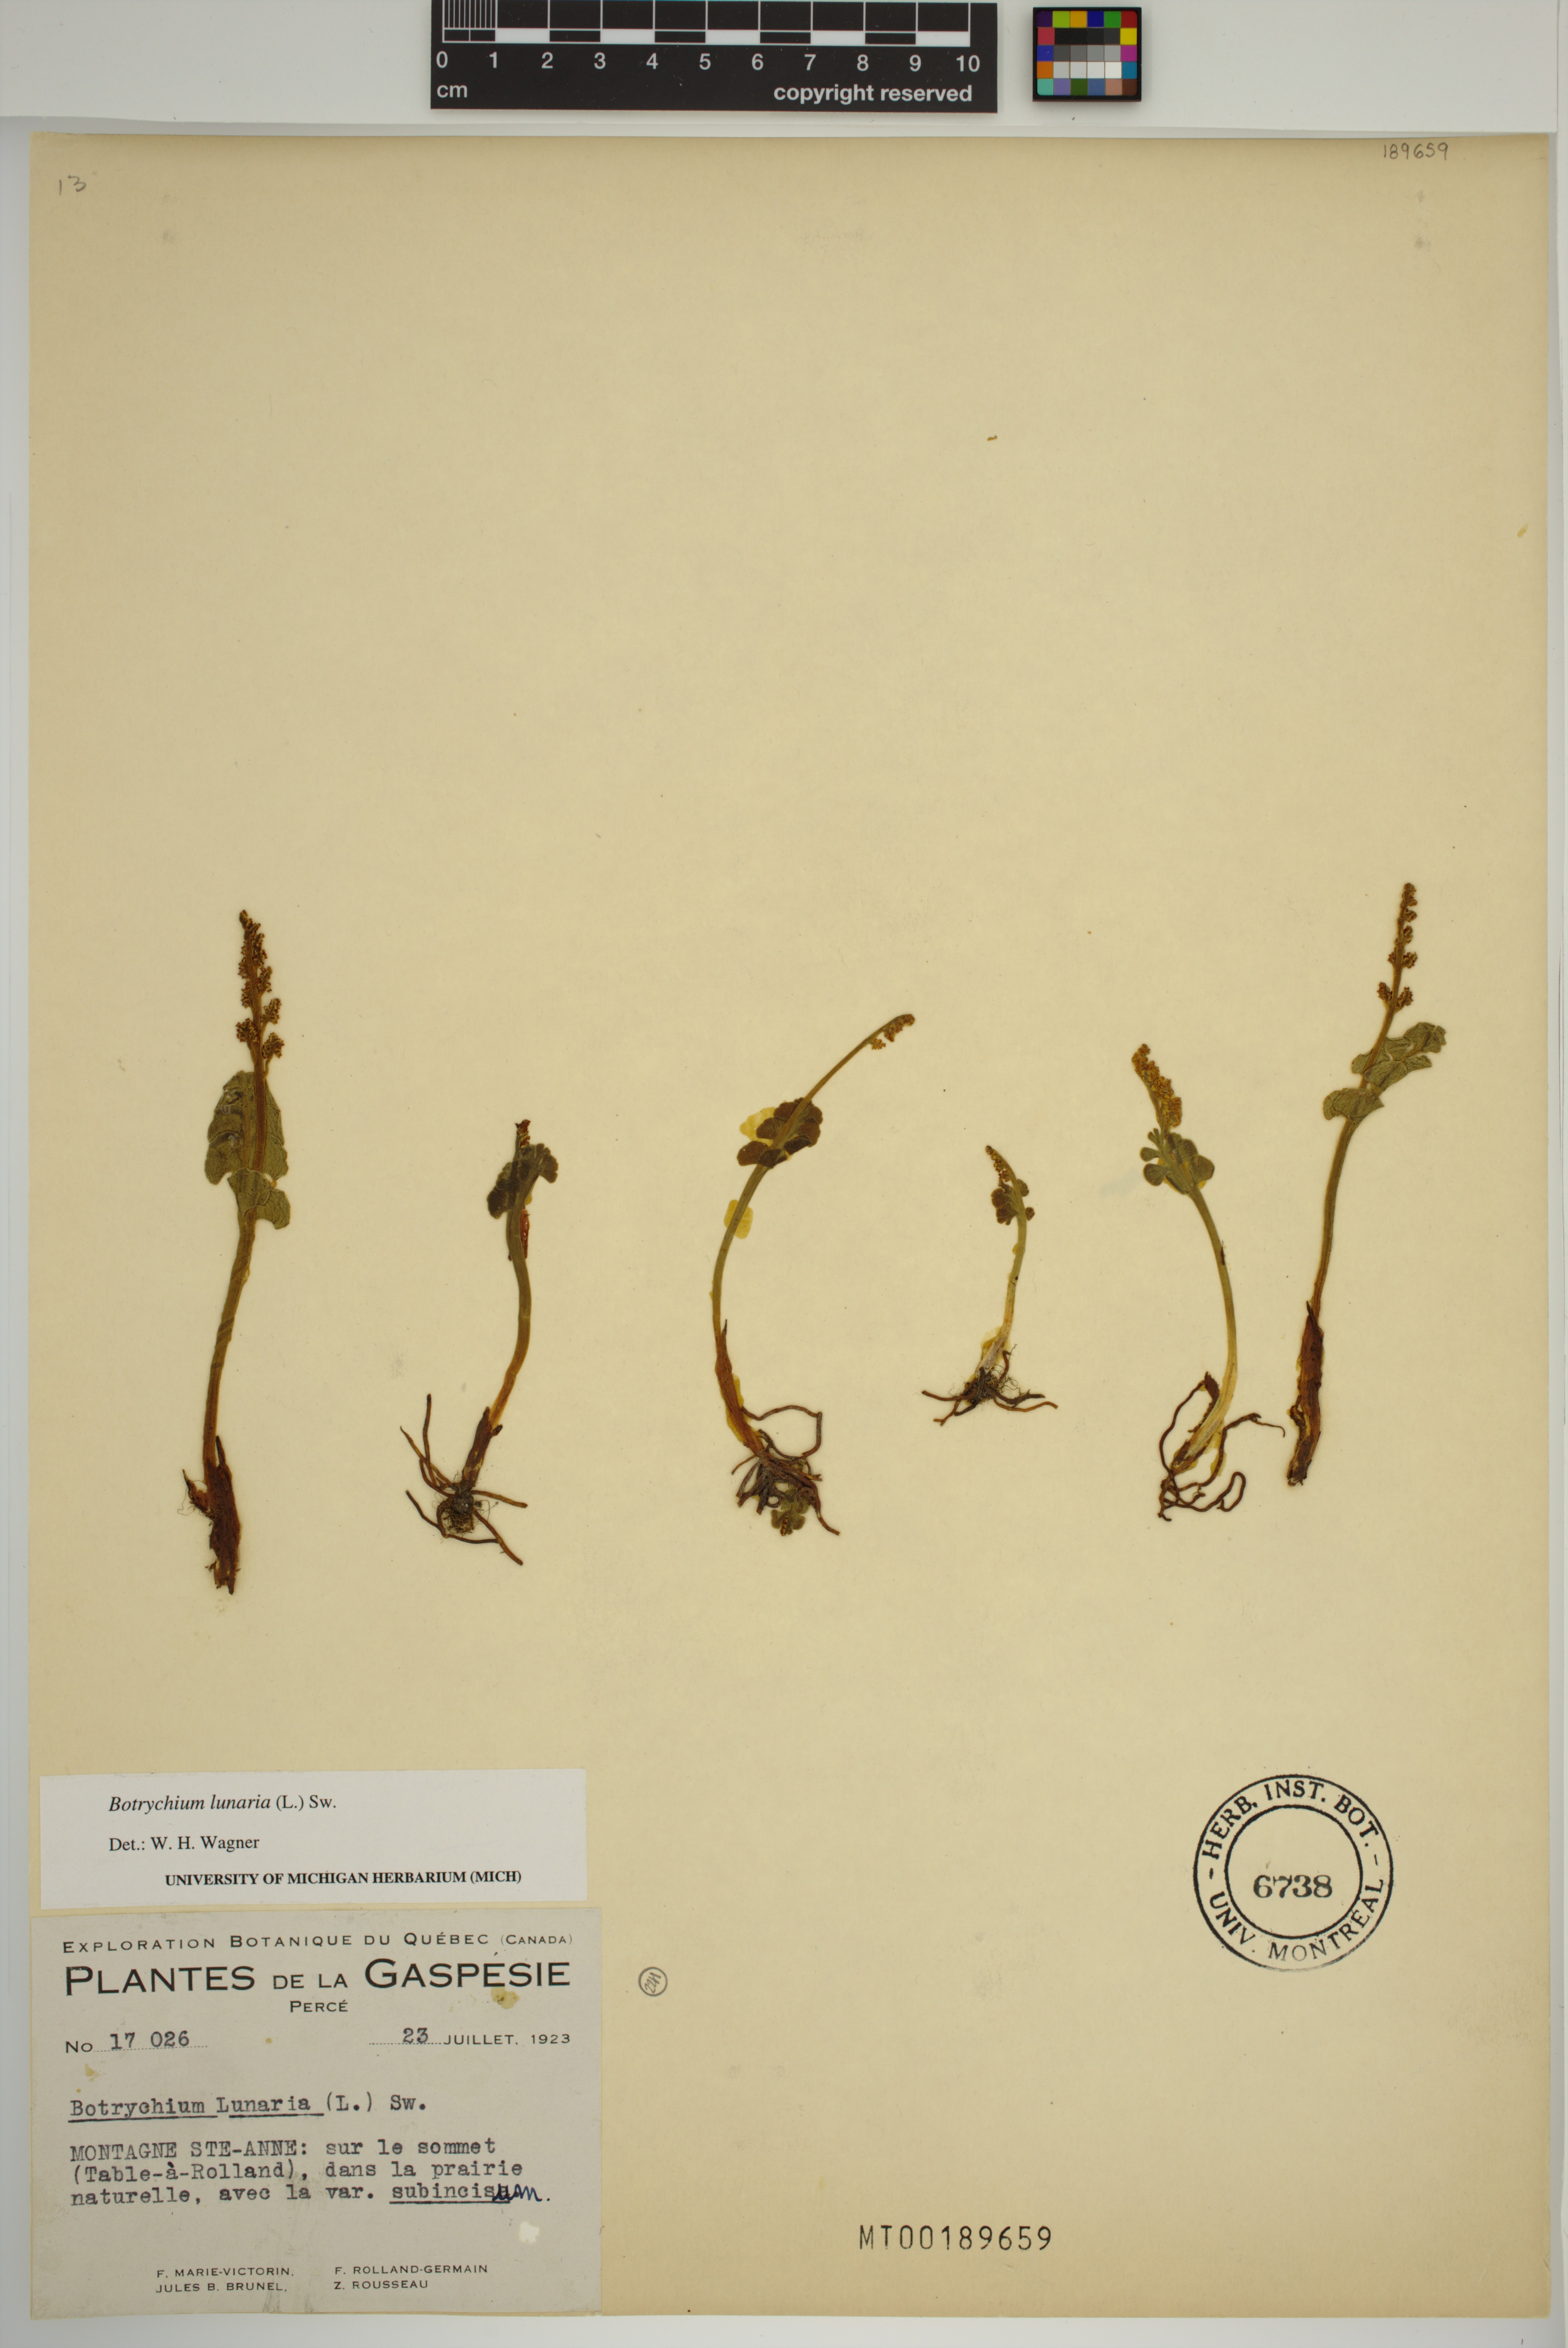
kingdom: Plantae
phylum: Tracheophyta
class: Polypodiopsida
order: Ophioglossales
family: Ophioglossaceae
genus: Botrychium
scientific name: Botrychium lunaria
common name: Moonwort
